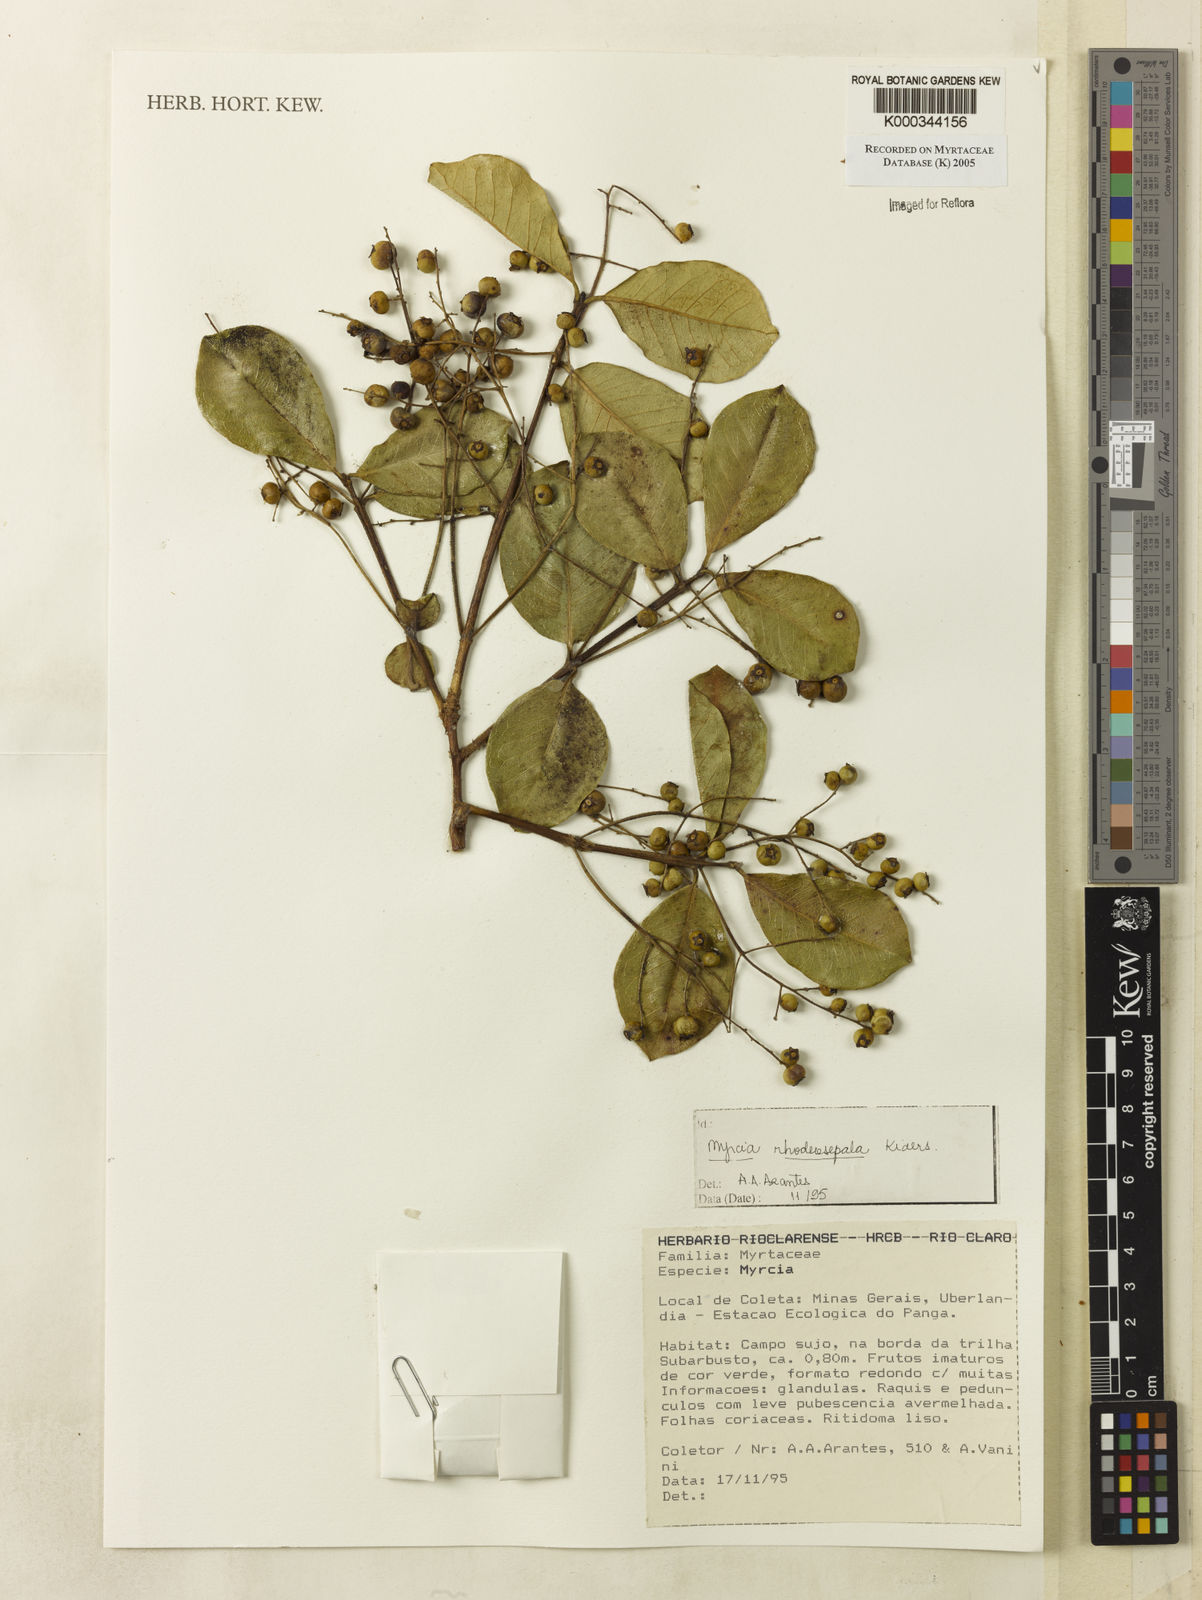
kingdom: Plantae
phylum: Tracheophyta
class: Magnoliopsida
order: Myrtales
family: Myrtaceae
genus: Myrcia
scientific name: Myrcia tomentosa
